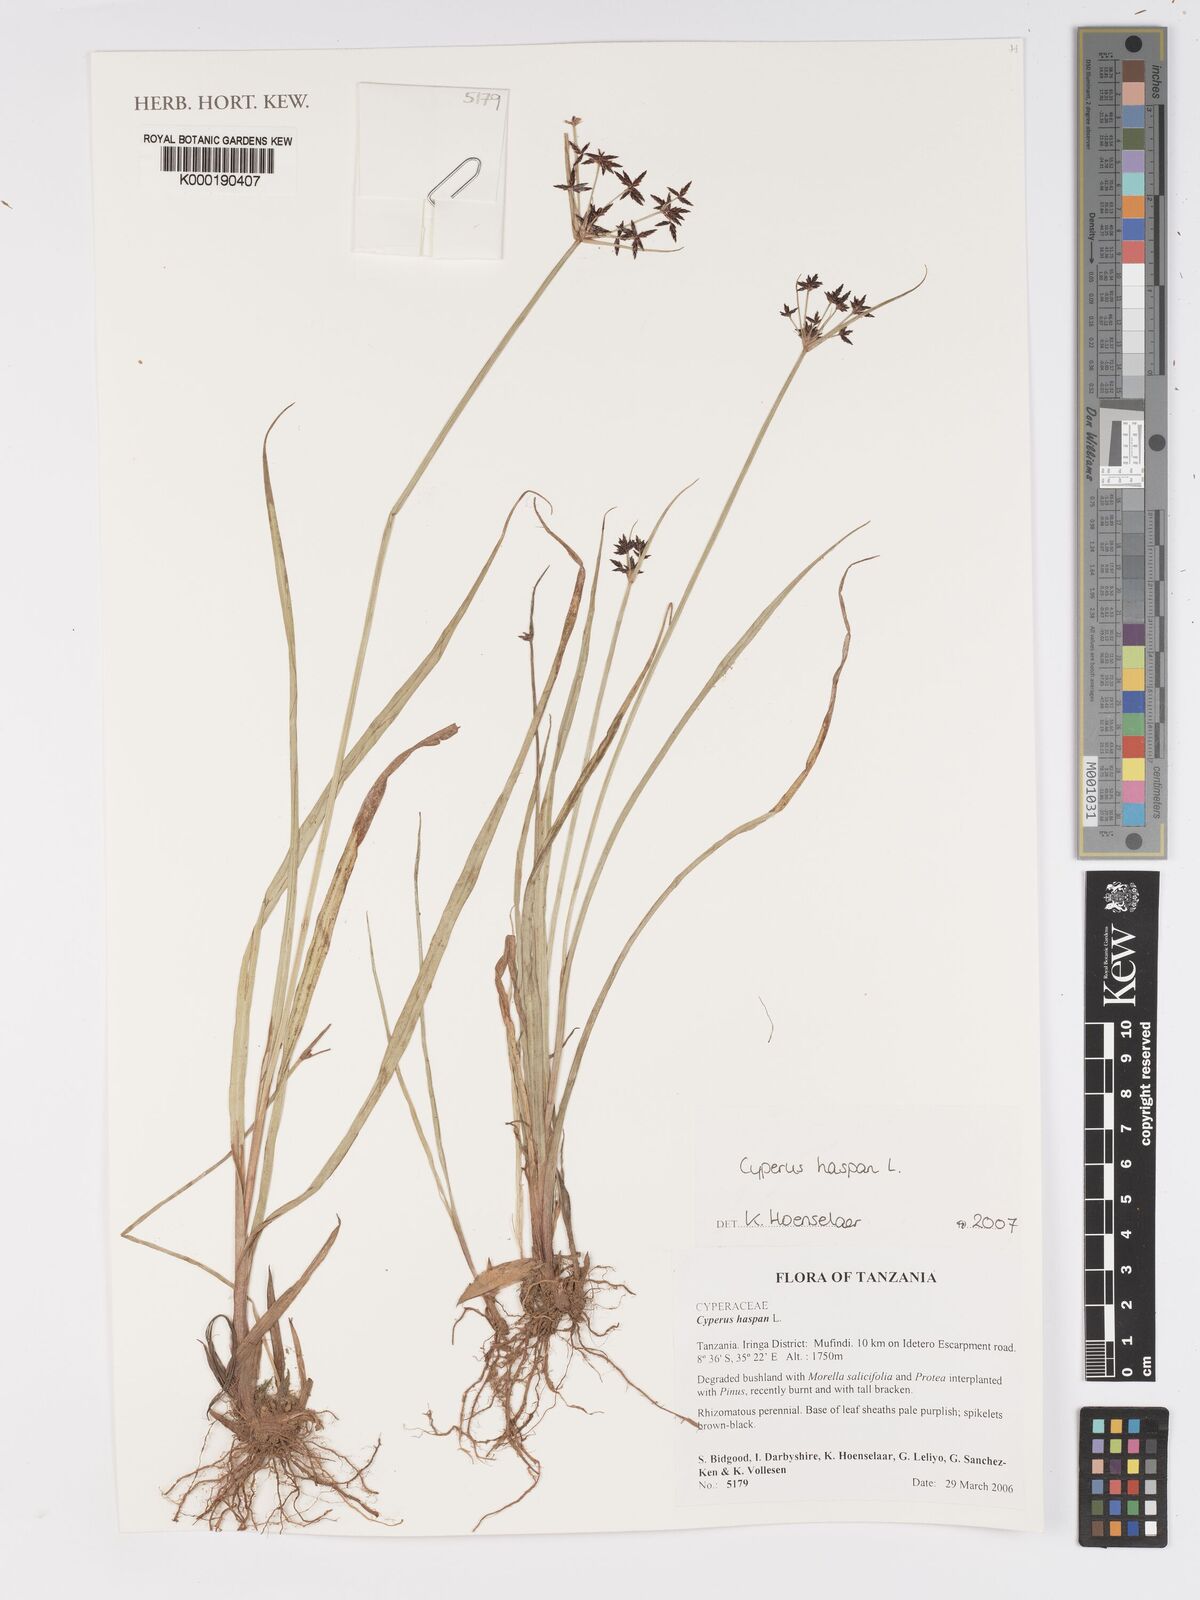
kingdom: Plantae
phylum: Tracheophyta
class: Liliopsida
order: Poales
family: Cyperaceae
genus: Cyperus
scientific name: Cyperus haspan
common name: Haspan flatsedge
